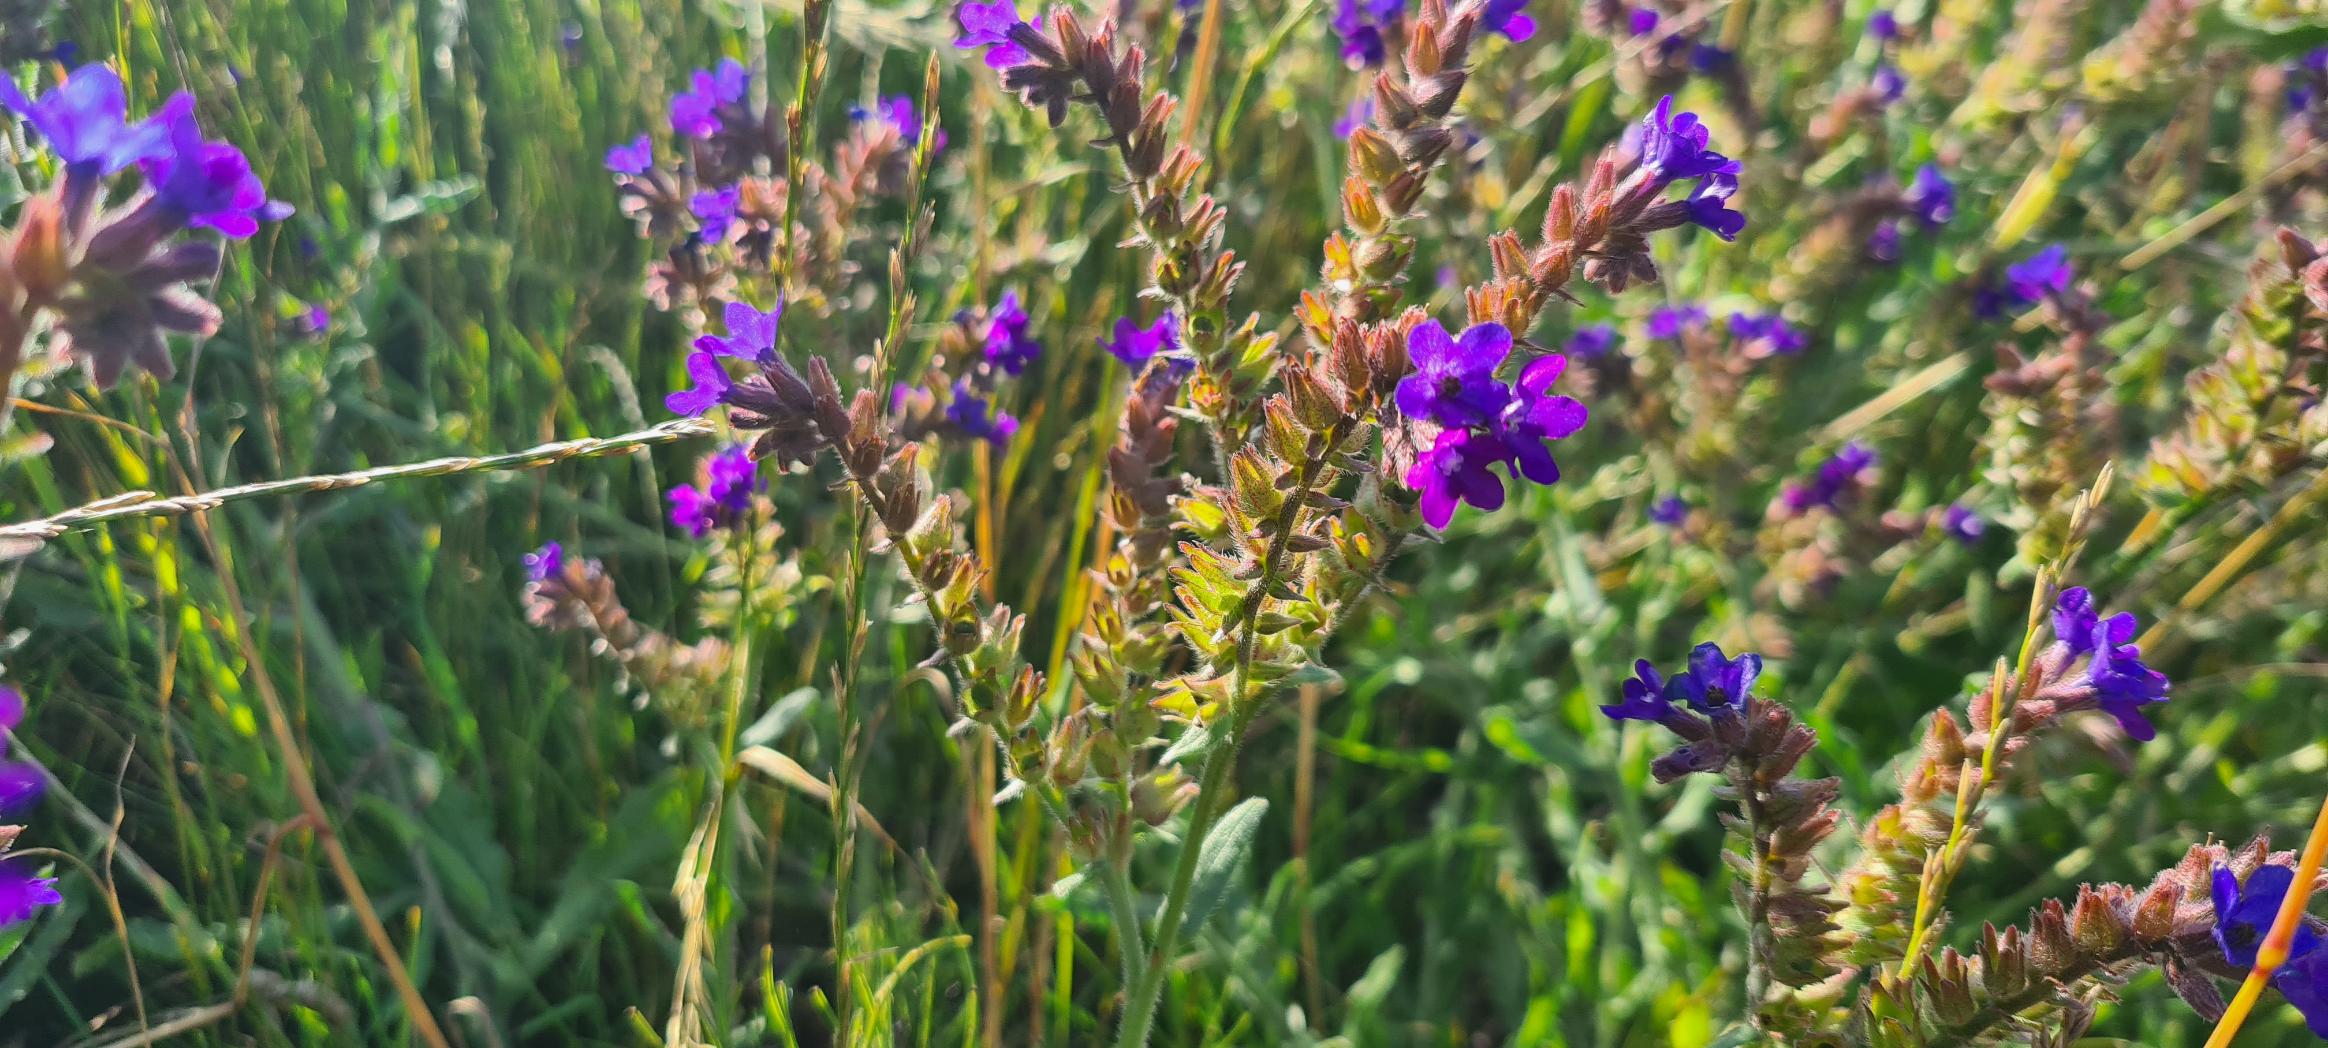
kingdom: Plantae
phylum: Tracheophyta
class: Magnoliopsida
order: Boraginales
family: Boraginaceae
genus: Anchusa
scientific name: Anchusa officinalis
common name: Læge-oksetunge
